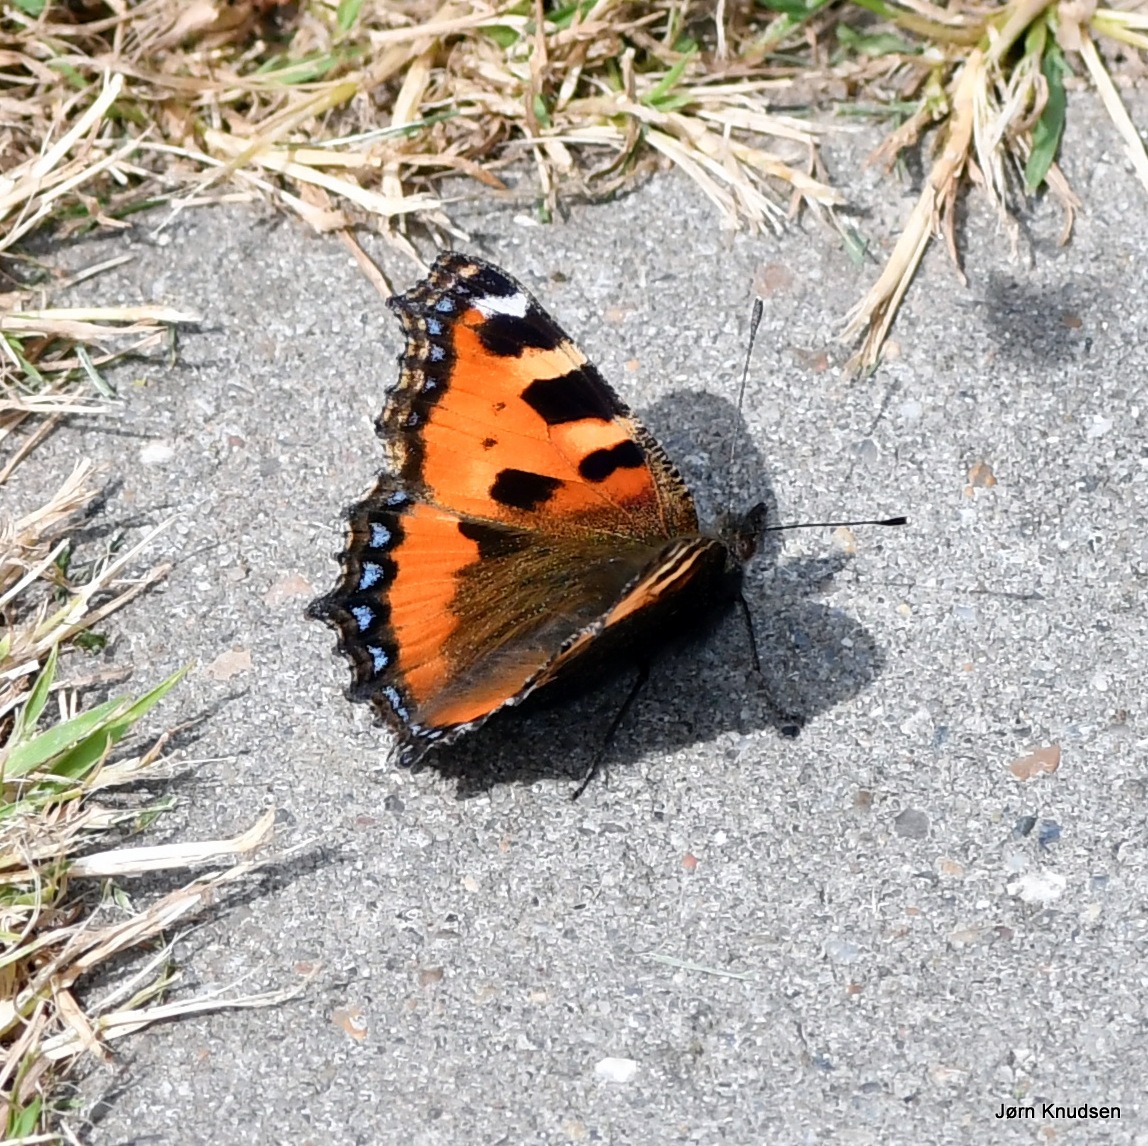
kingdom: Animalia
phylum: Arthropoda
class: Insecta
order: Lepidoptera
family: Nymphalidae
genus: Aglais
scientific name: Aglais urticae
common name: Nældens takvinge
